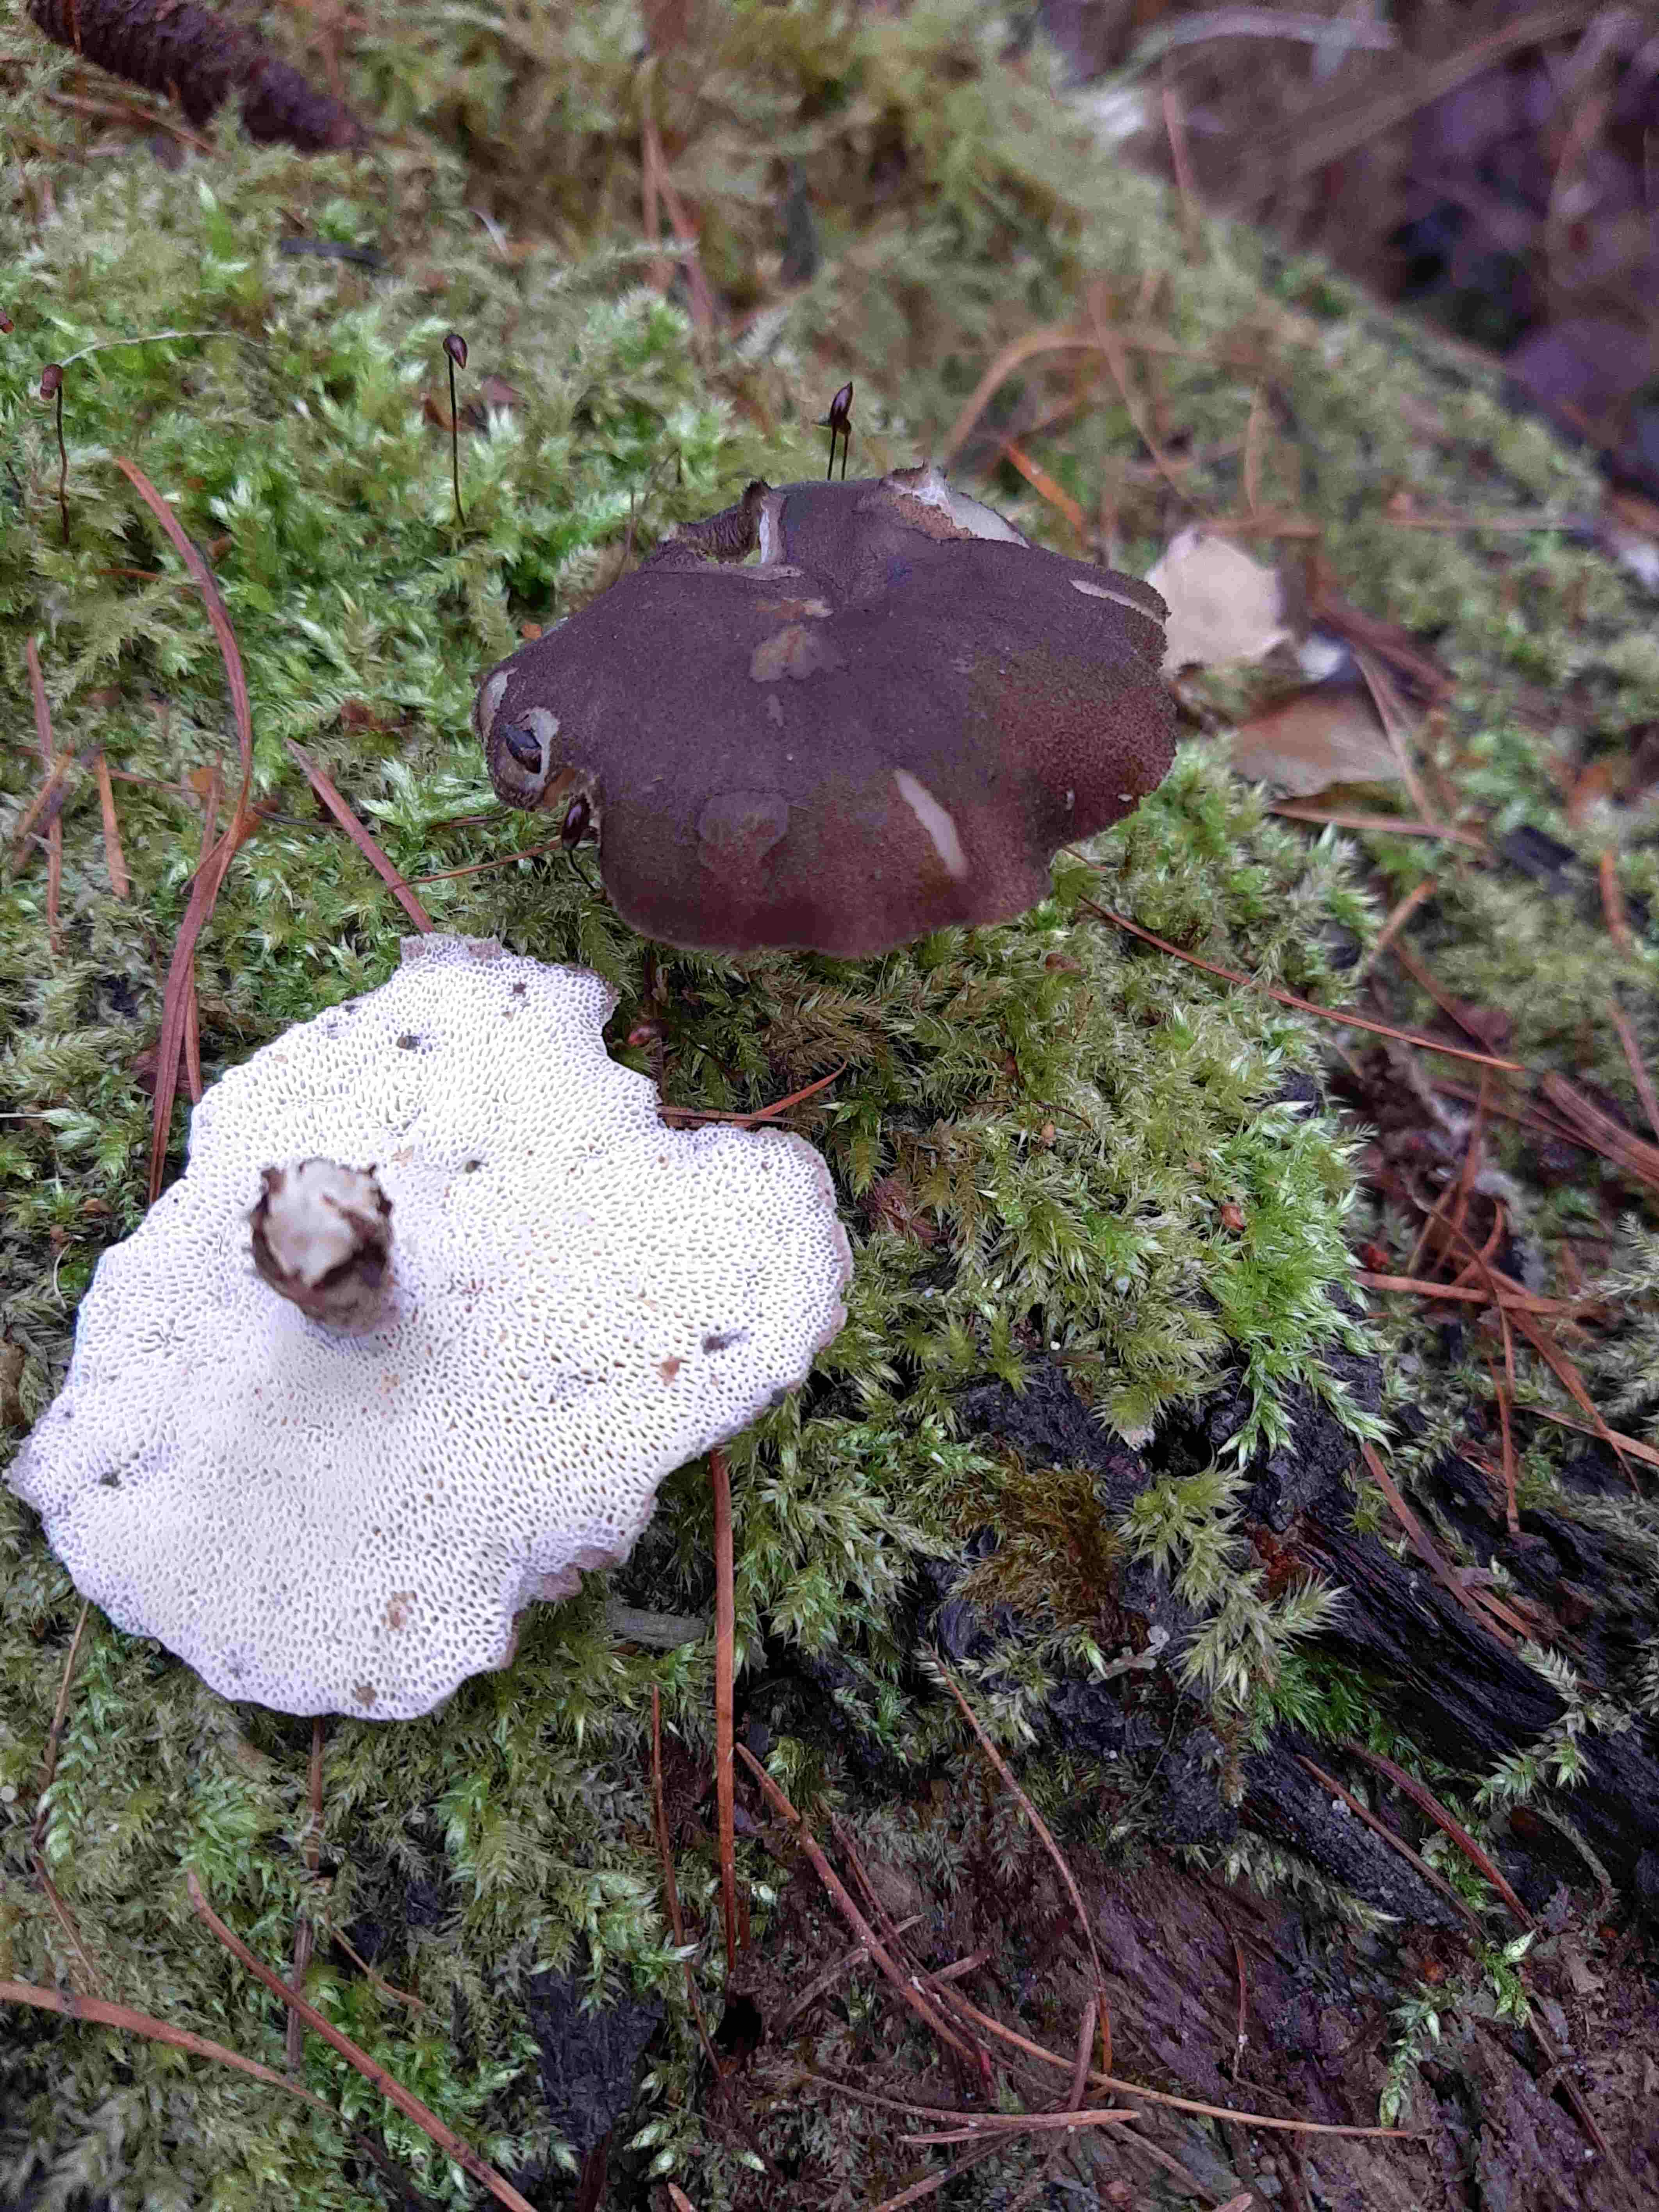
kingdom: Fungi
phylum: Basidiomycota
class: Agaricomycetes
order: Polyporales
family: Polyporaceae
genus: Lentinus
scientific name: Lentinus brumalis
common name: vinter-stilkporesvamp
